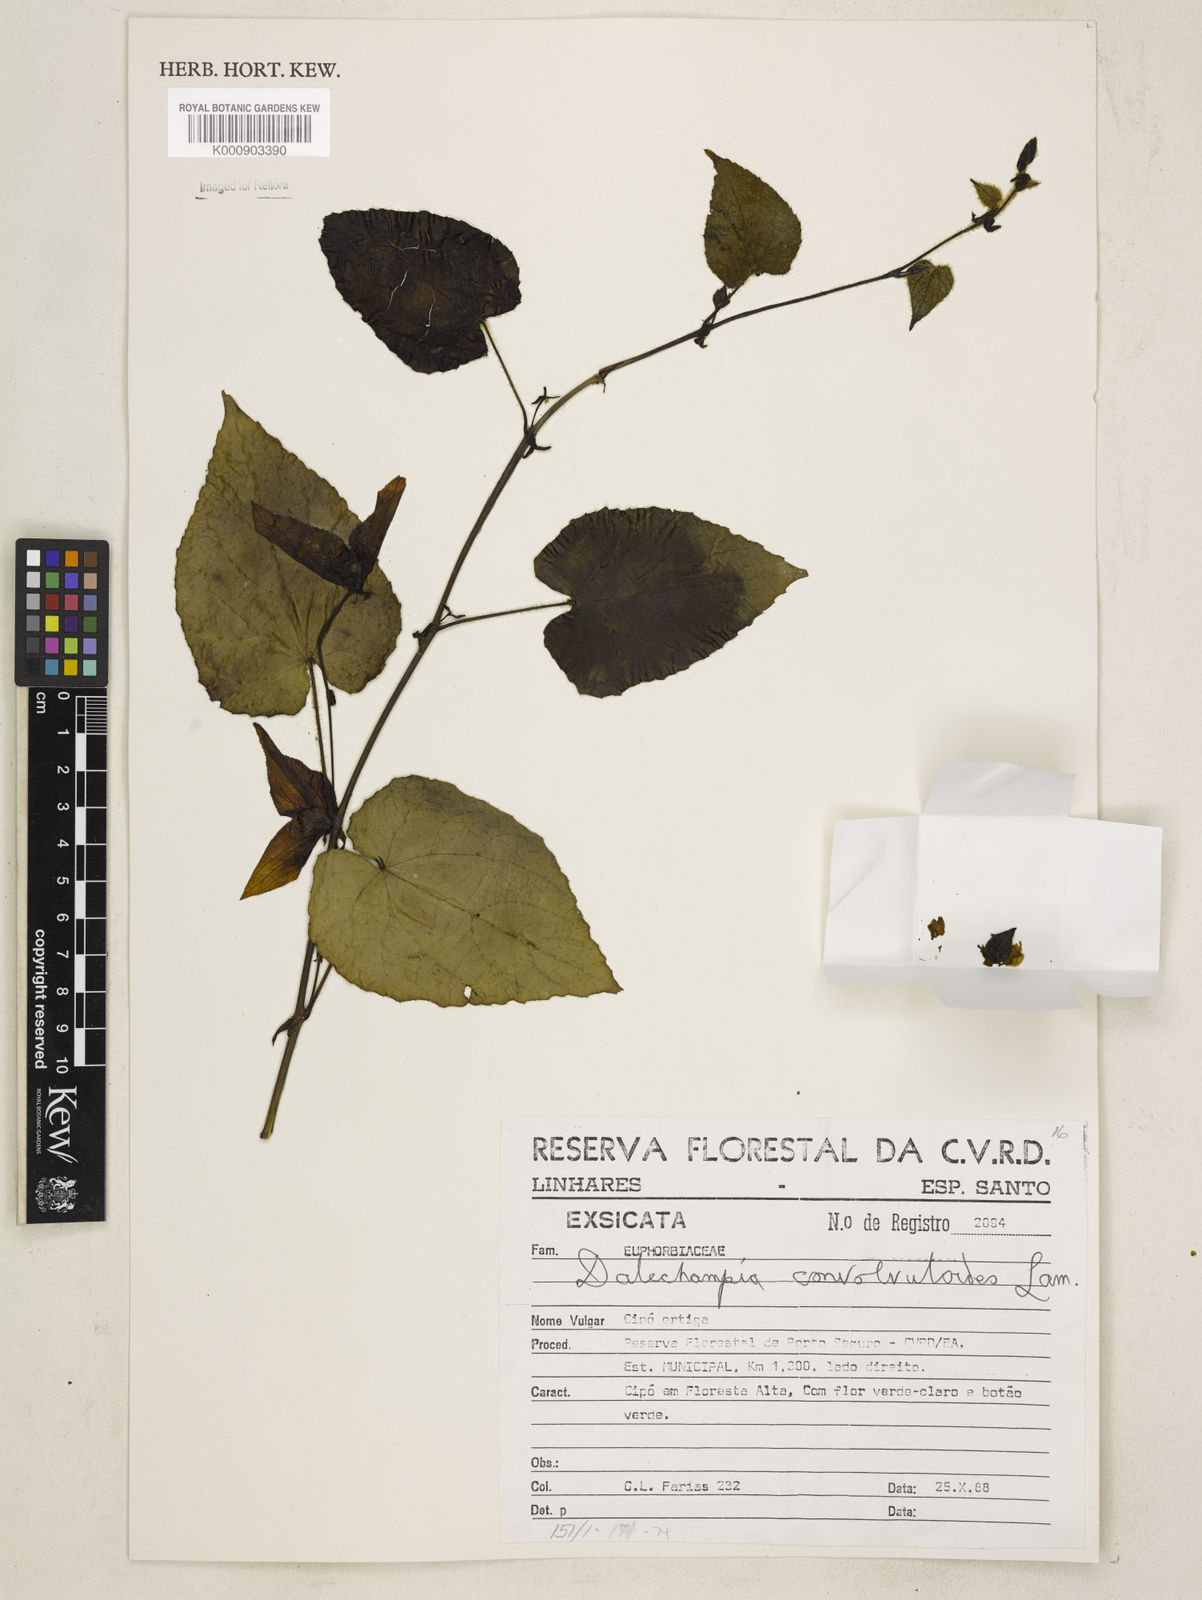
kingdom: Plantae
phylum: Tracheophyta
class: Magnoliopsida
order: Malpighiales
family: Euphorbiaceae
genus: Dalechampia
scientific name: Dalechampia
